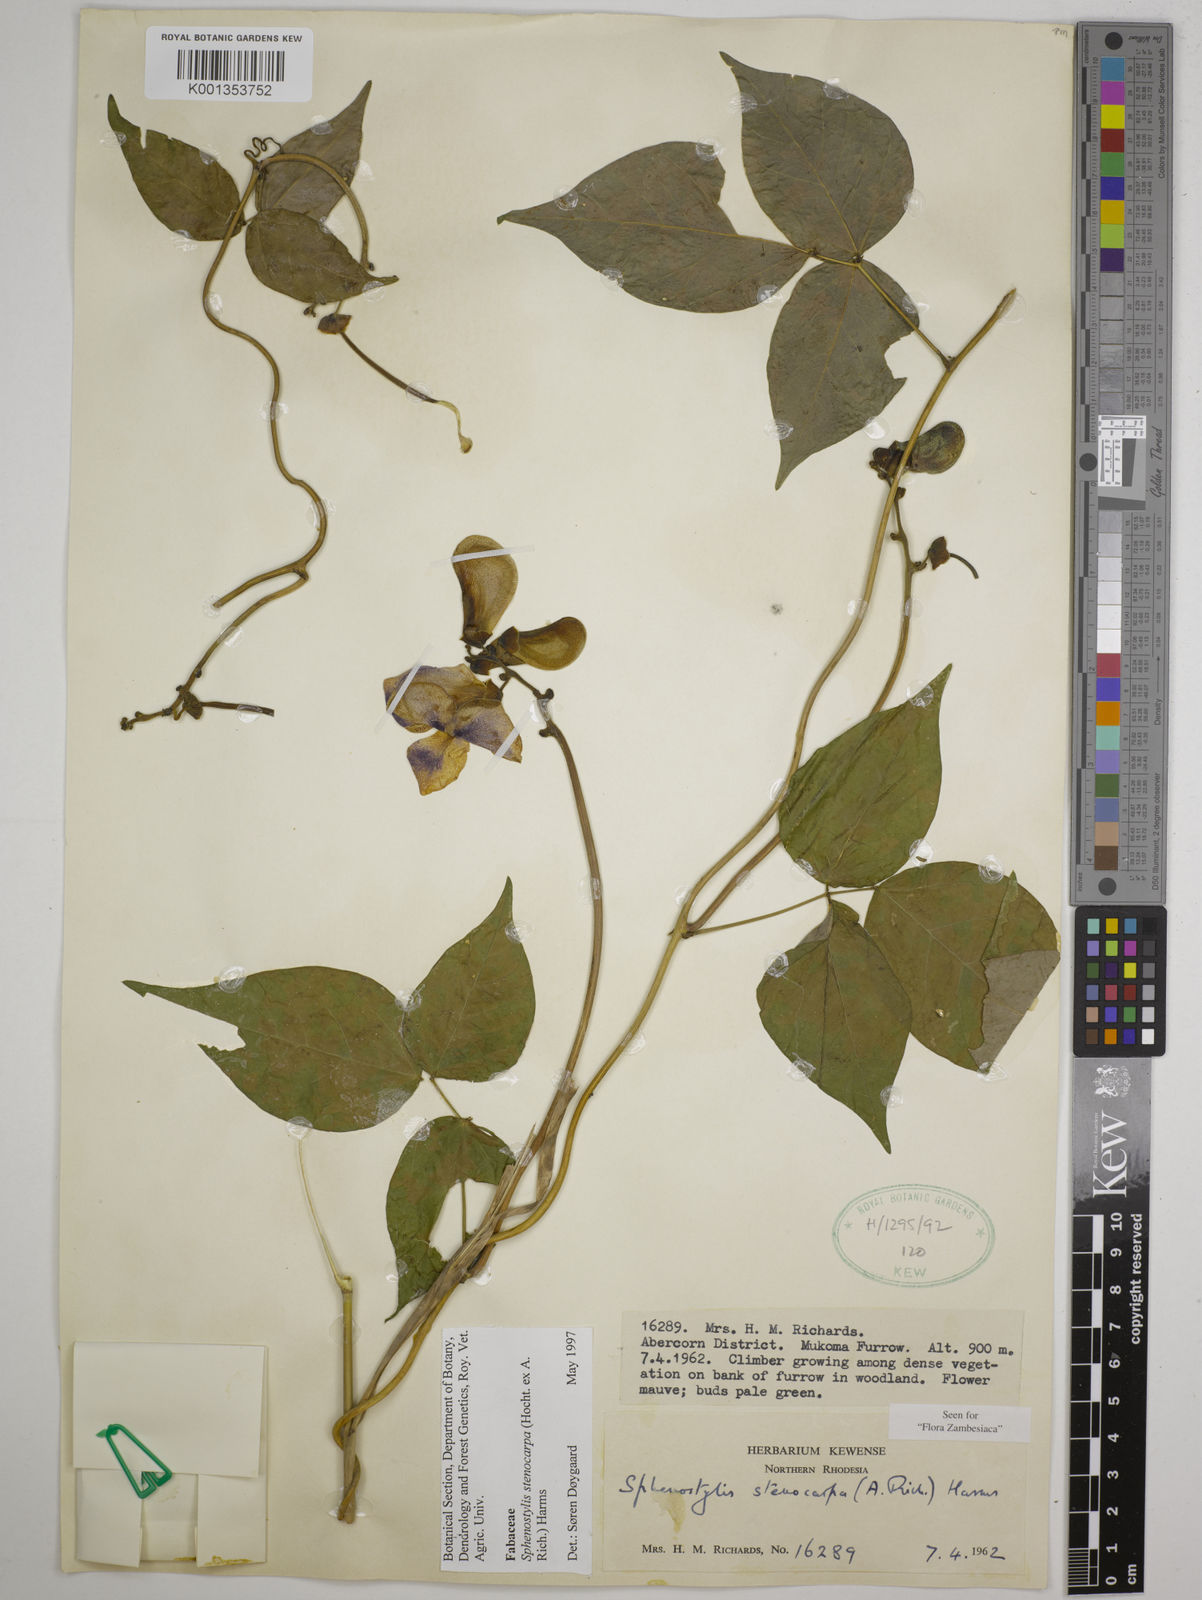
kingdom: Plantae
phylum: Tracheophyta
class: Magnoliopsida
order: Fabales
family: Fabaceae
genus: Sphenostylis
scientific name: Sphenostylis stenocarpa
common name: Yam-pea
